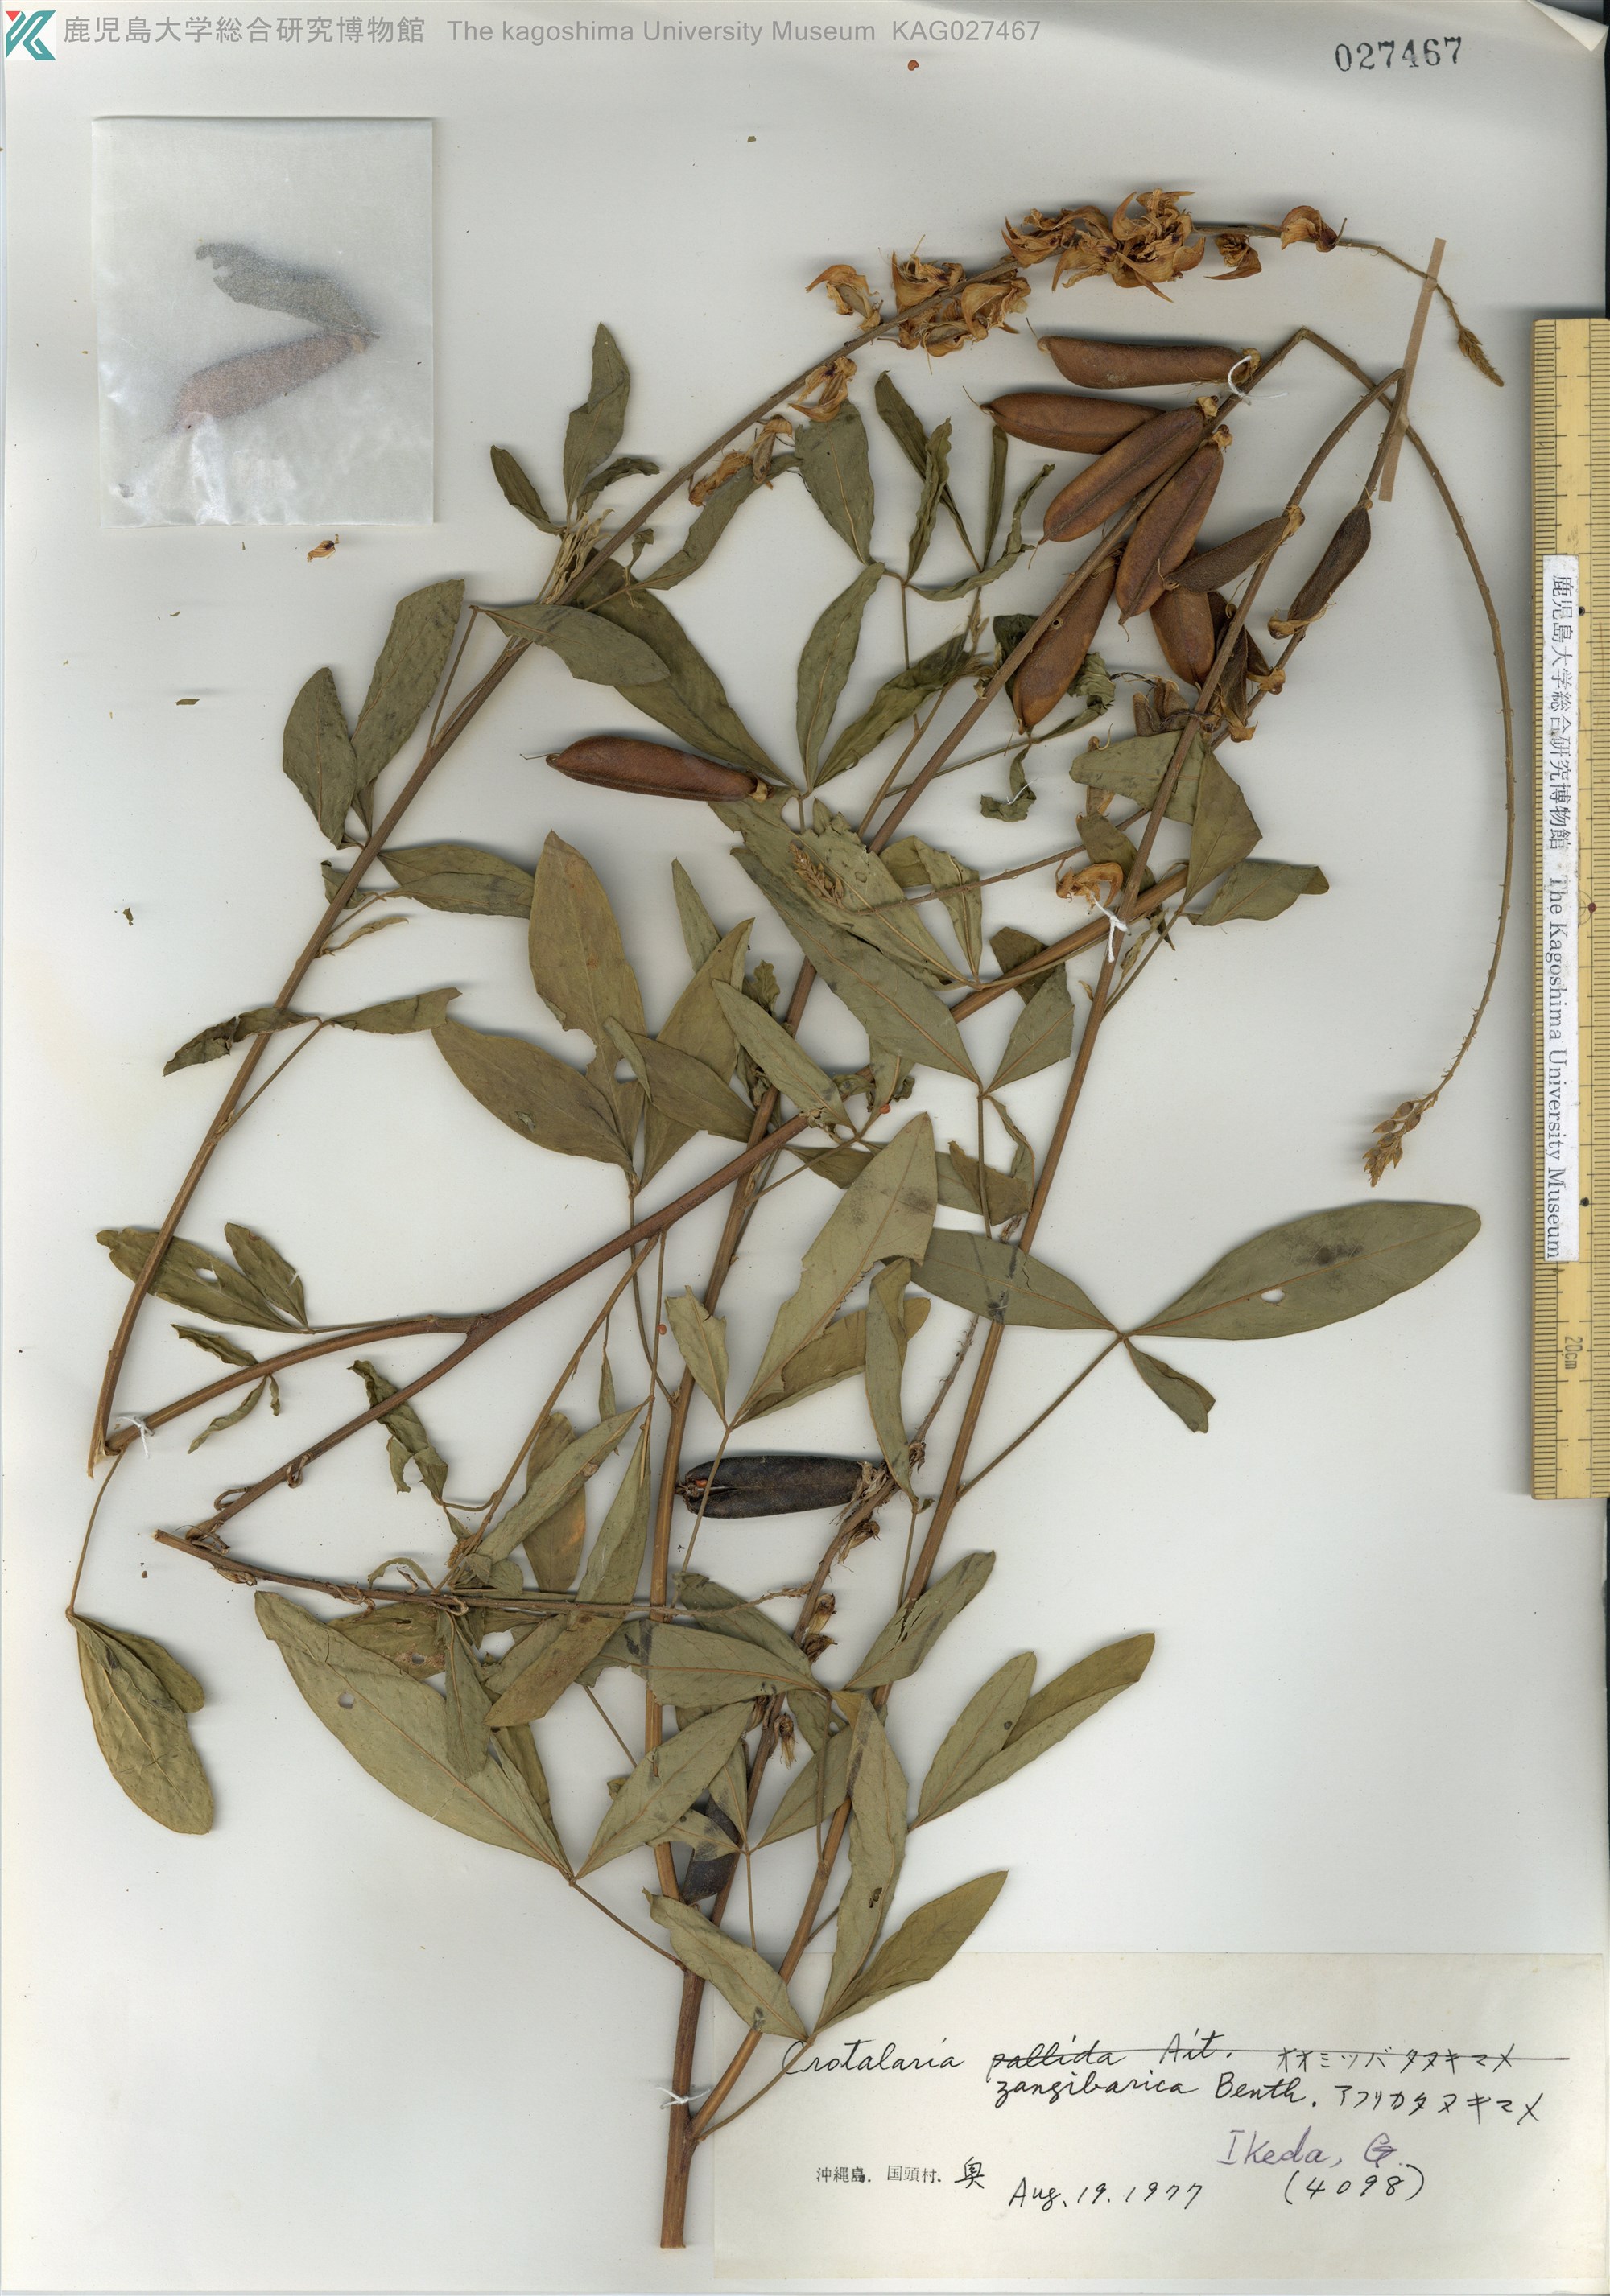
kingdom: Plantae
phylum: Tracheophyta
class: Magnoliopsida
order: Fabales
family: Fabaceae
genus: Crotalaria
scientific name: Crotalaria trichotoma
